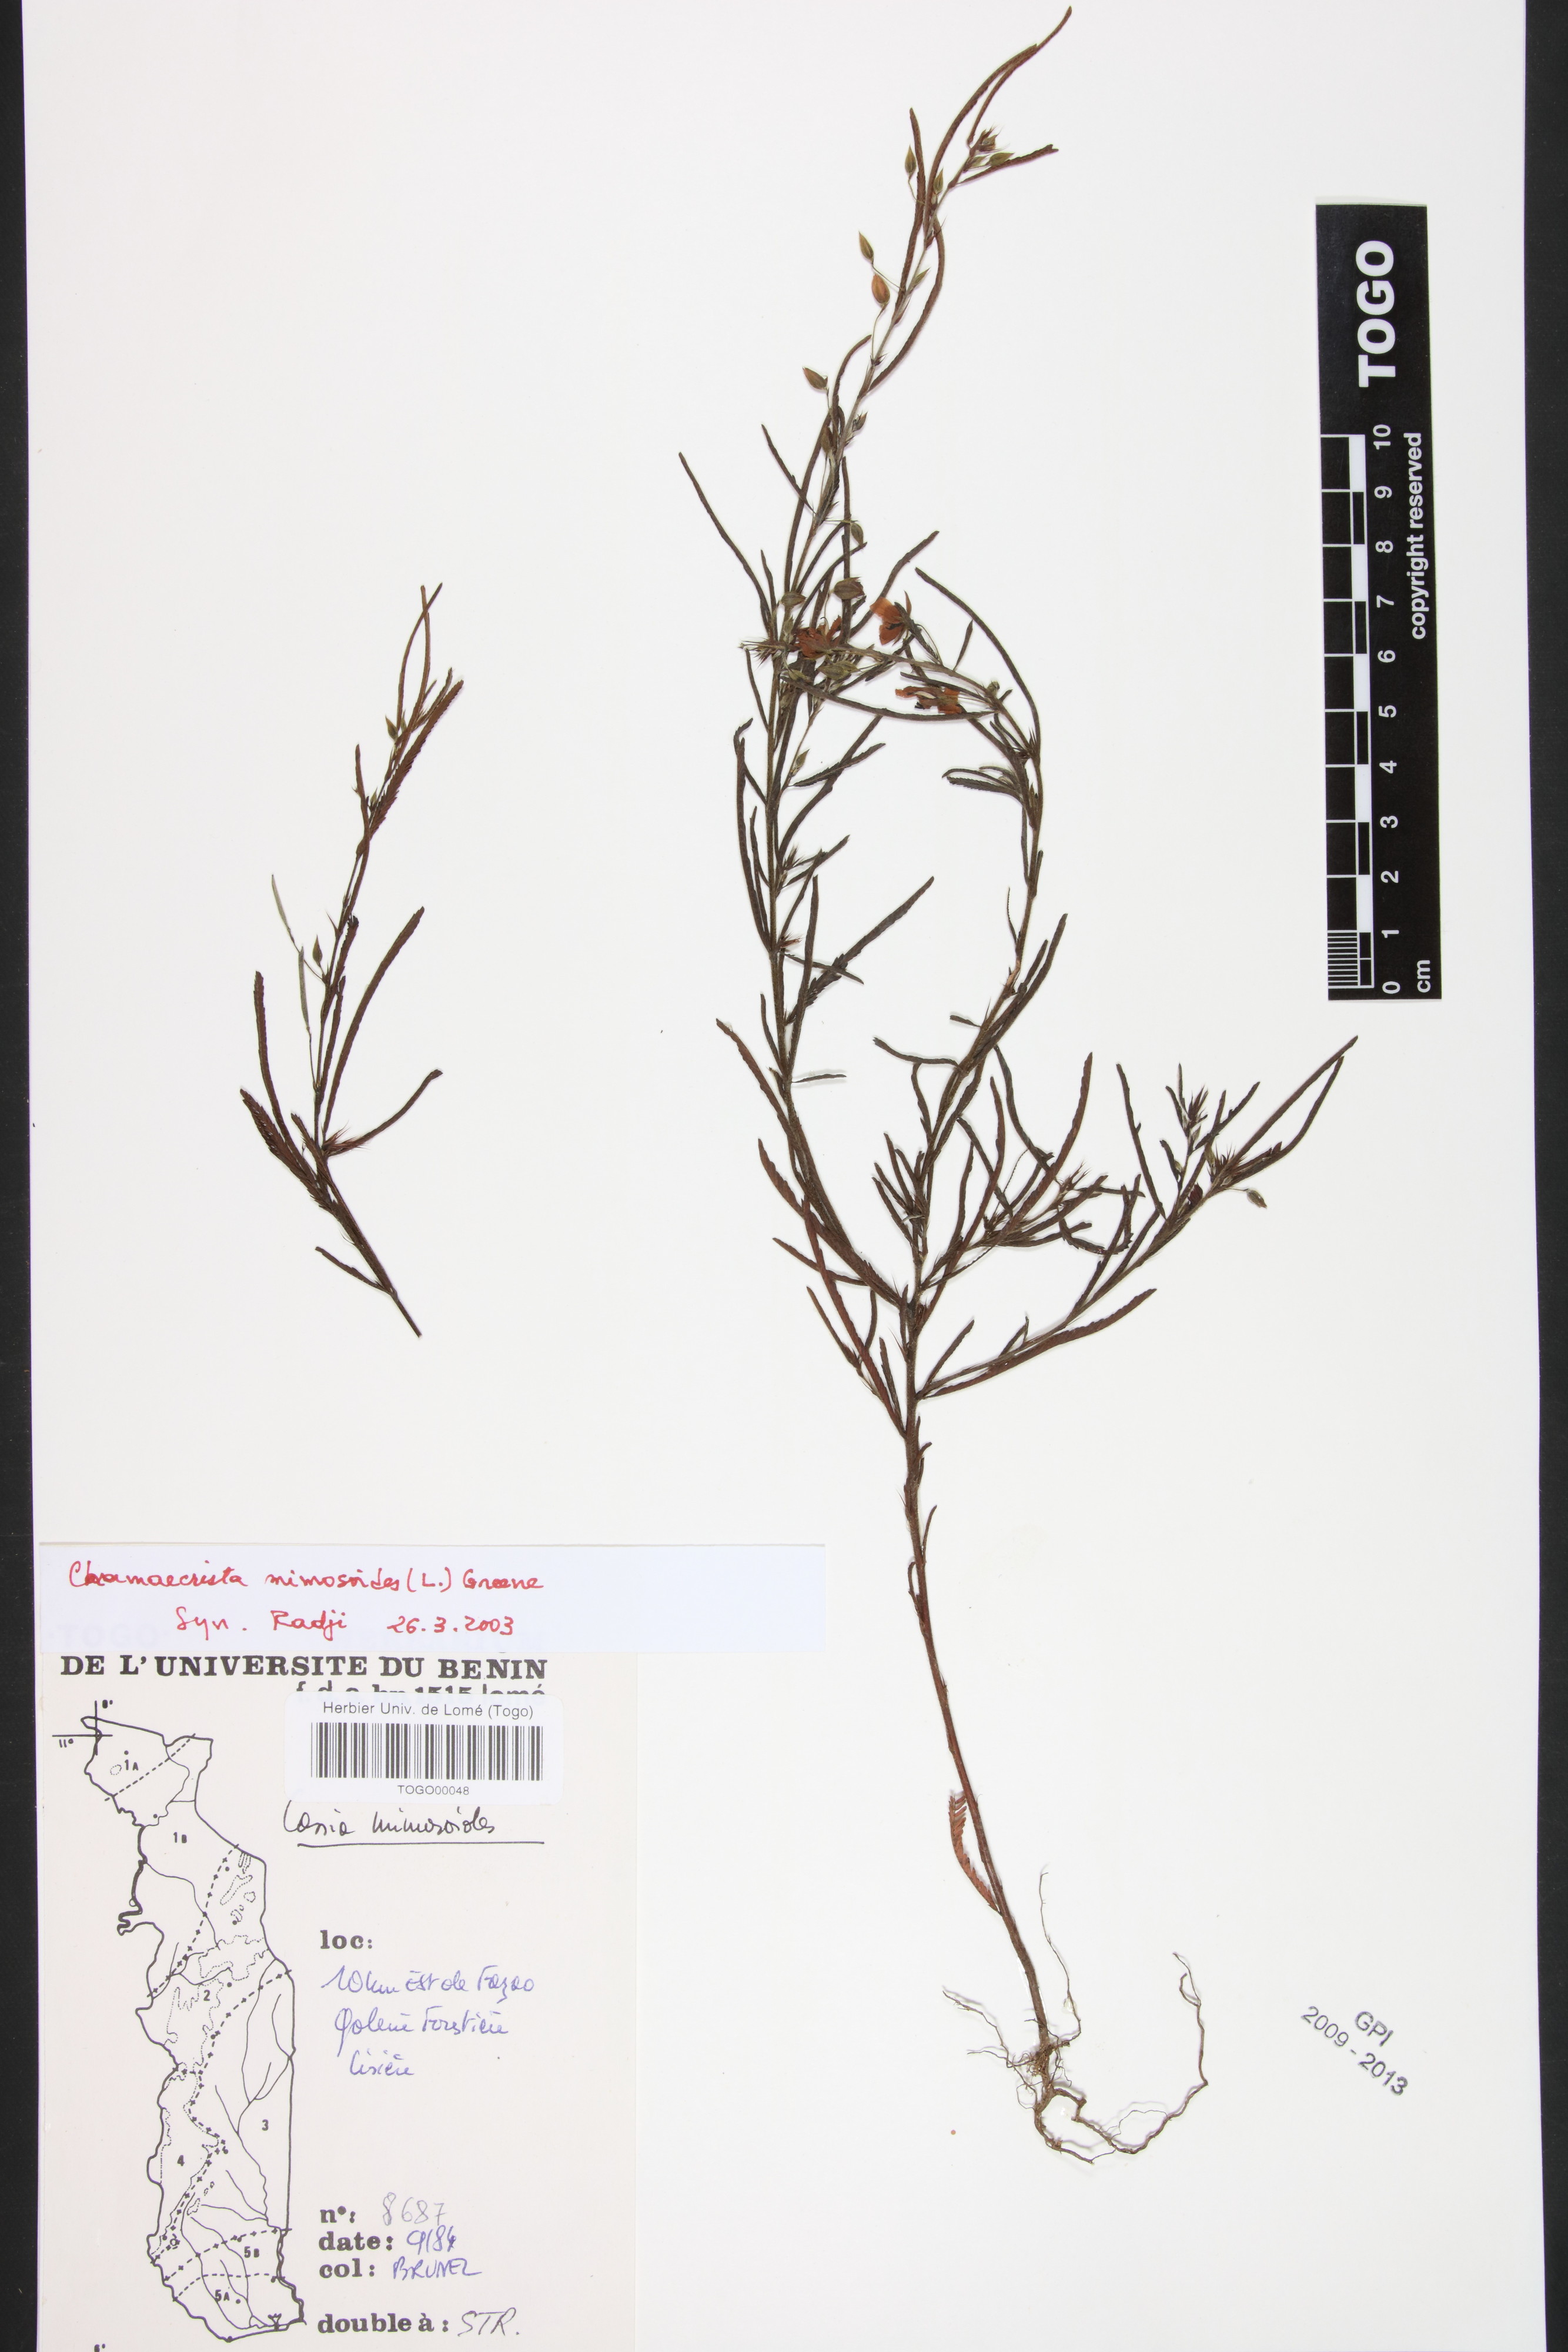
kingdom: Plantae
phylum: Tracheophyta
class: Magnoliopsida
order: Fabales
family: Fabaceae
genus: Chamaecrista
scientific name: Chamaecrista mimosoides
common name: Fish-bone cassia
